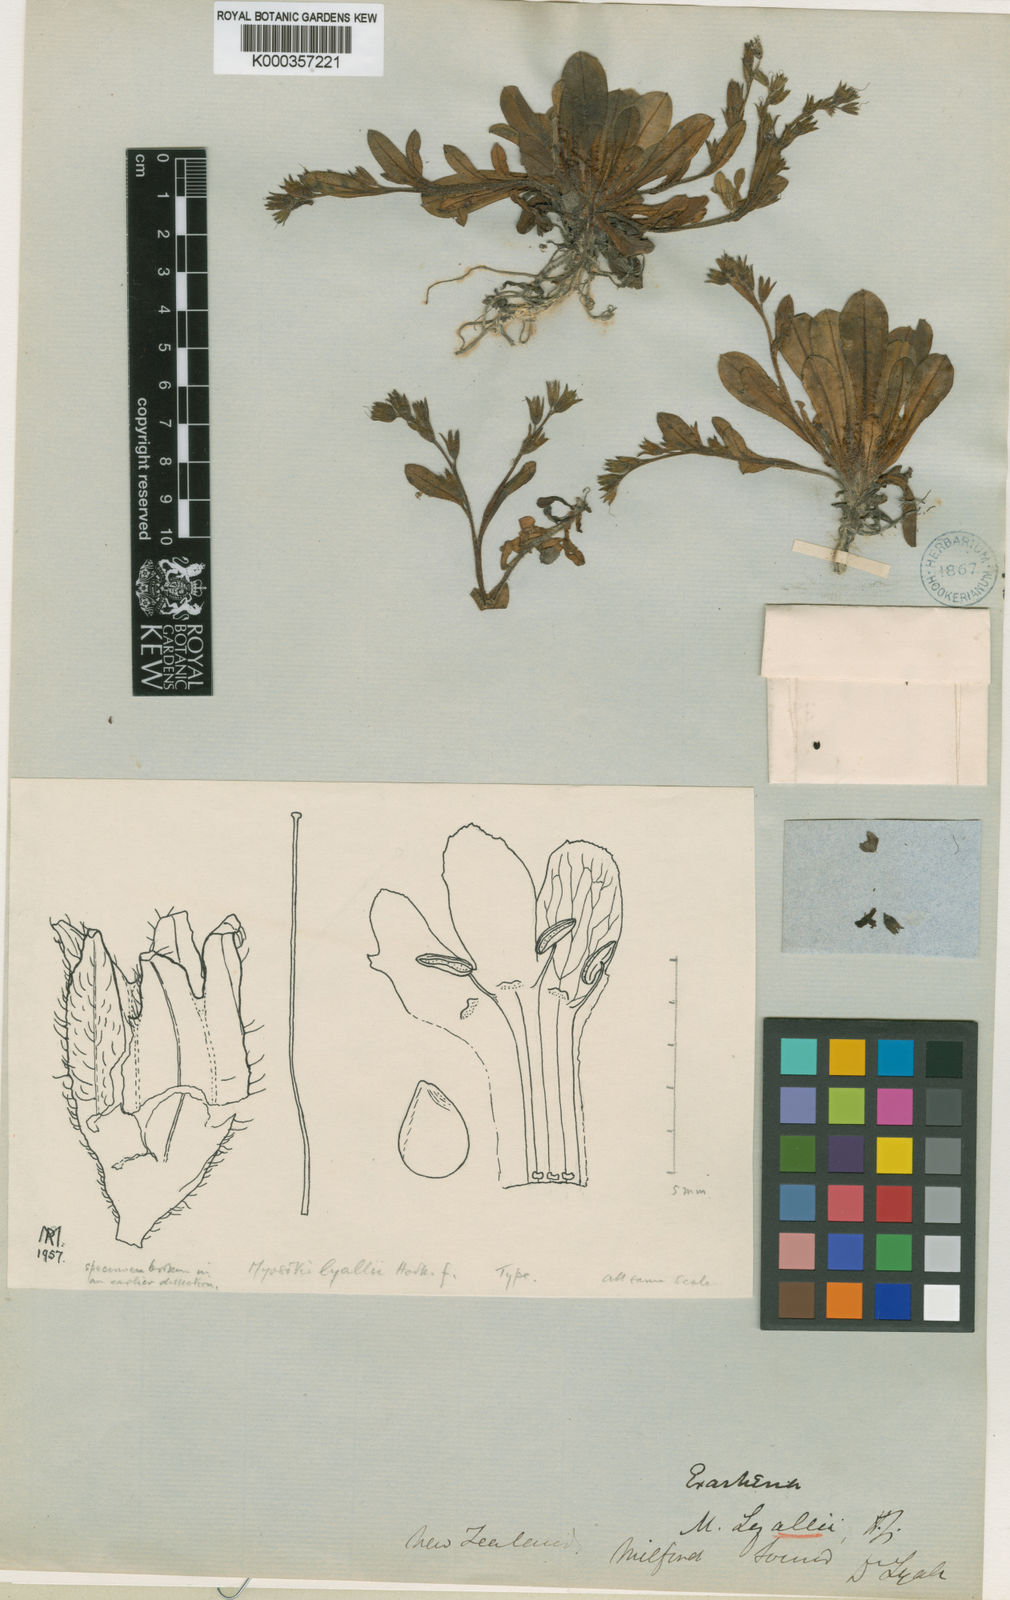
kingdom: Plantae
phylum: Tracheophyta
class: Magnoliopsida
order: Boraginales
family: Boraginaceae
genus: Myosotis
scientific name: Myosotis lyallii
